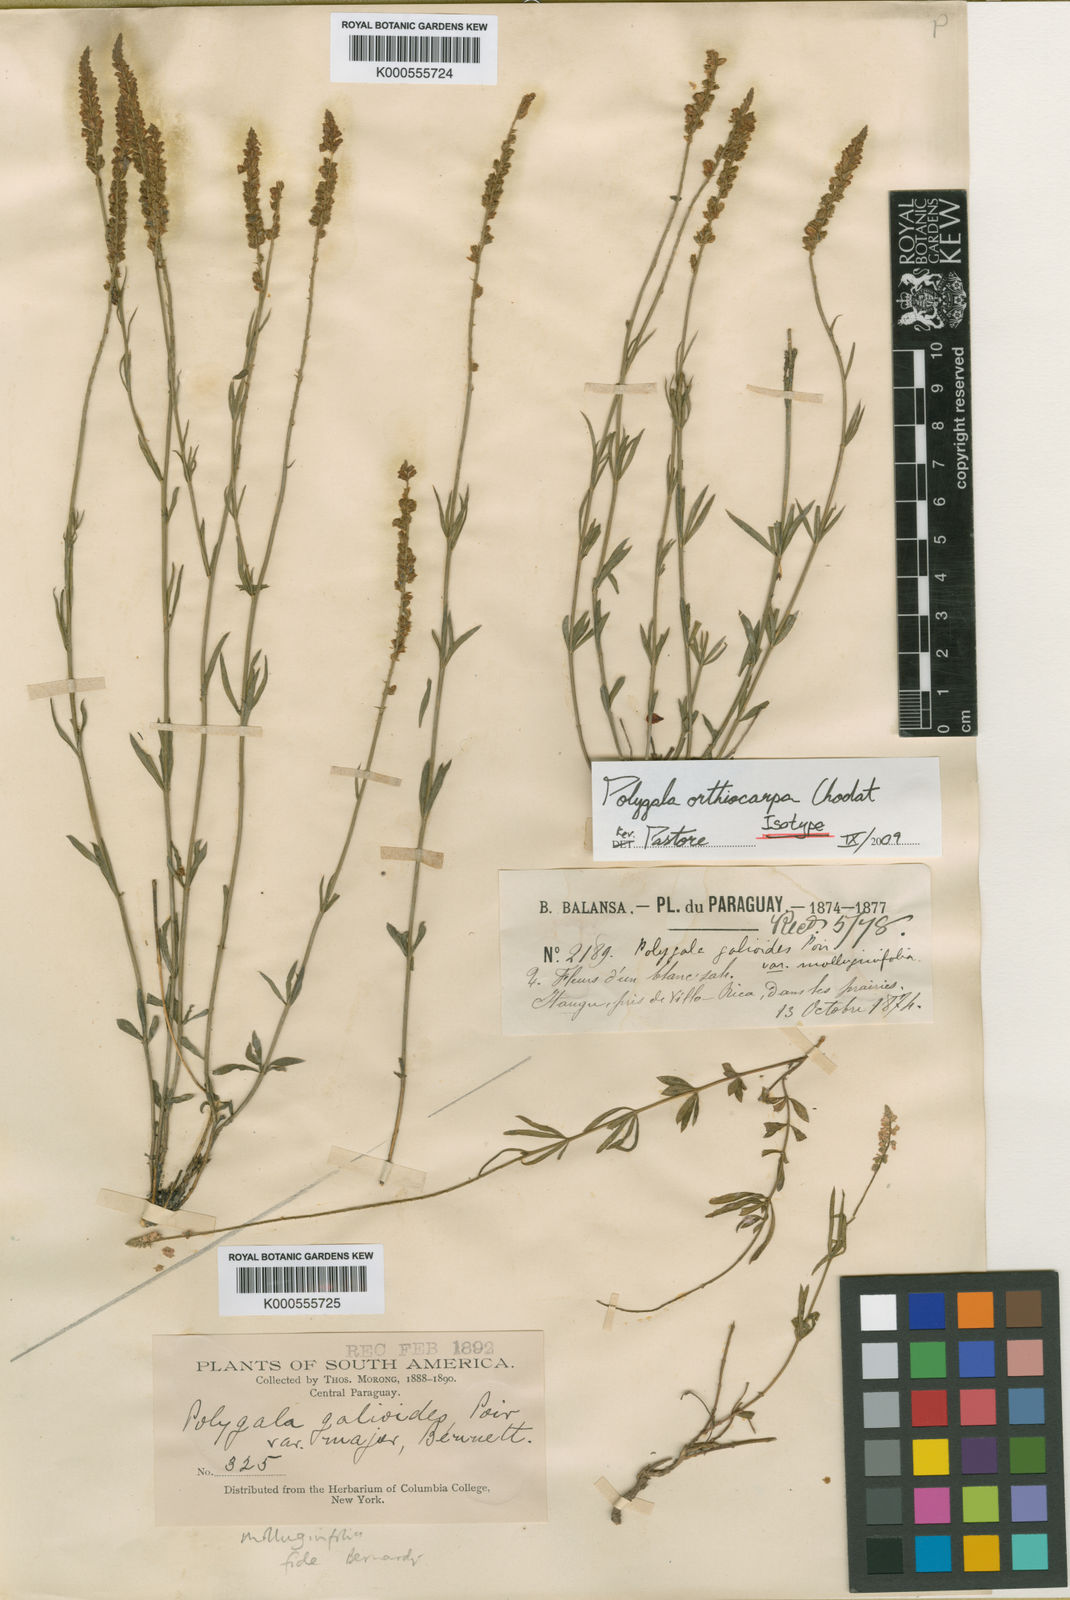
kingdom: Plantae
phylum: Tracheophyta
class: Magnoliopsida
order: Fabales
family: Polygalaceae
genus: Polygala
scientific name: Polygala molluginifolia
